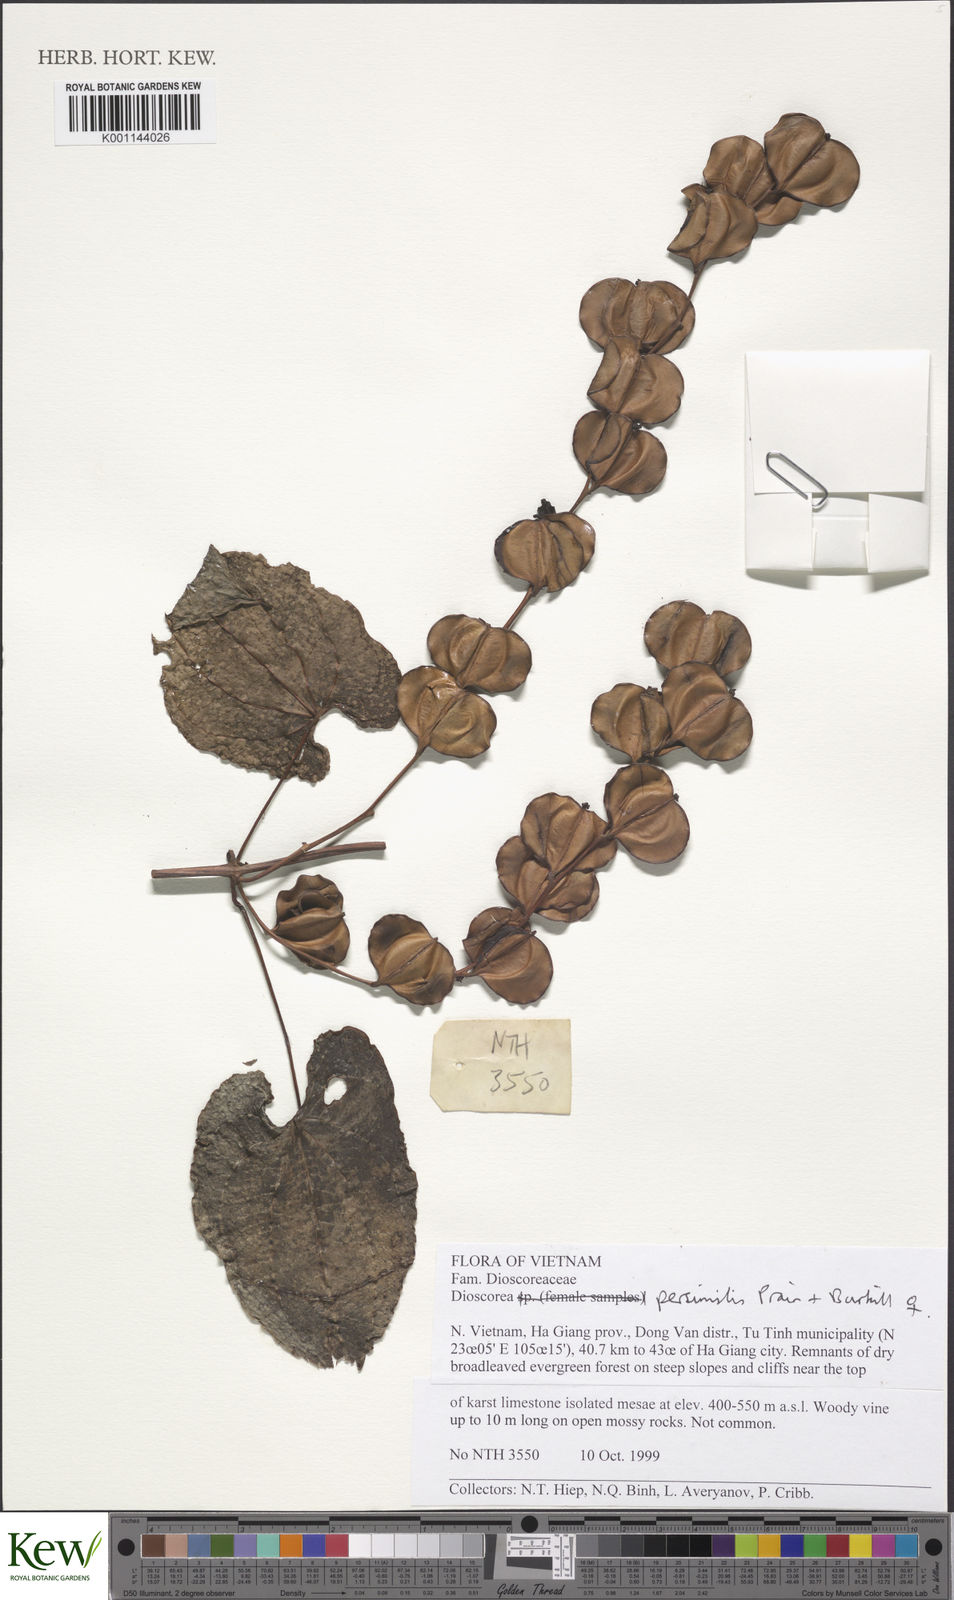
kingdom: Plantae
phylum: Tracheophyta
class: Liliopsida
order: Dioscoreales
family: Dioscoreaceae
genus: Dioscorea
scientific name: Dioscorea hamiltonii
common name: Mountain yam
